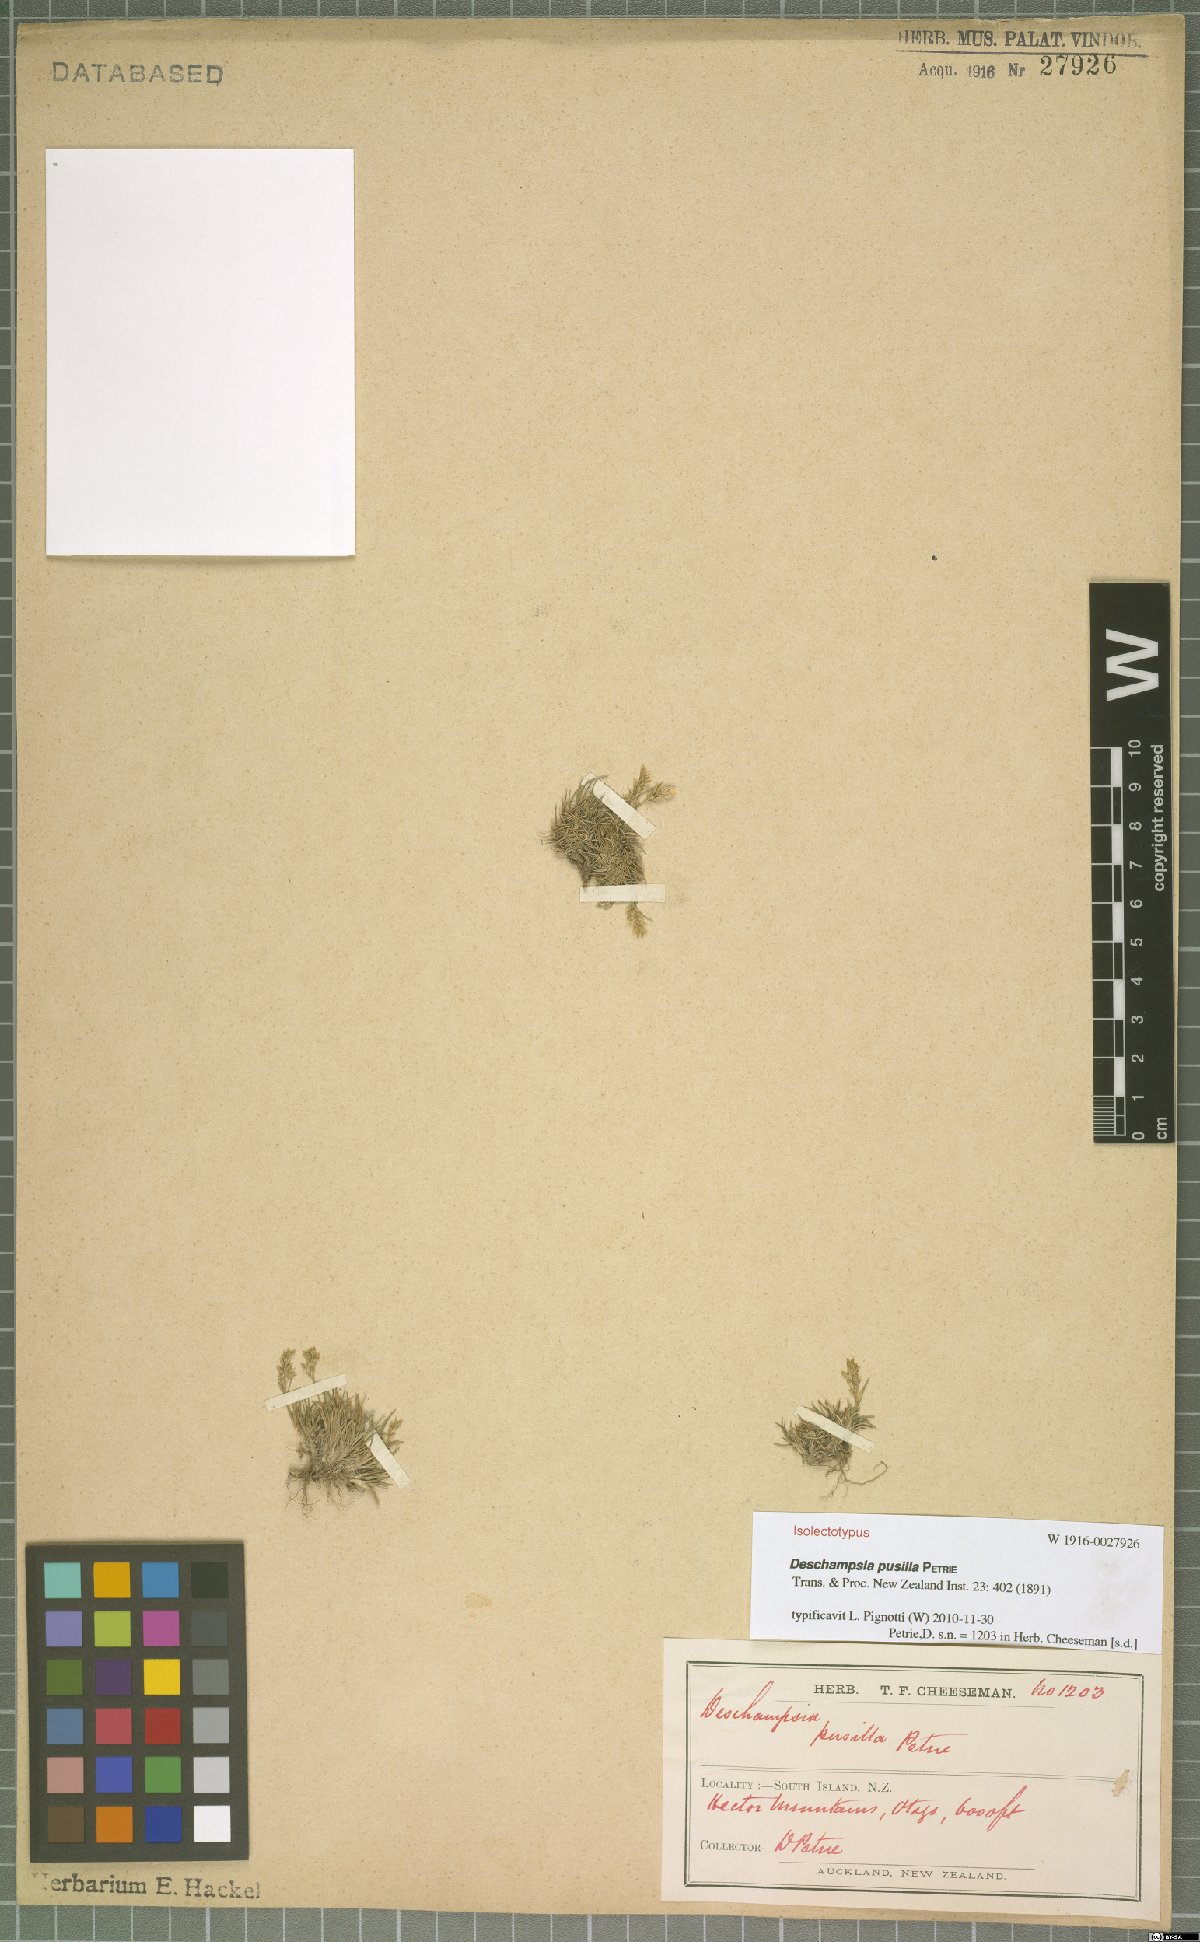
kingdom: Plantae
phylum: Tracheophyta
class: Liliopsida
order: Poales
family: Poaceae
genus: Deschampsia
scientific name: Deschampsia pusilla
